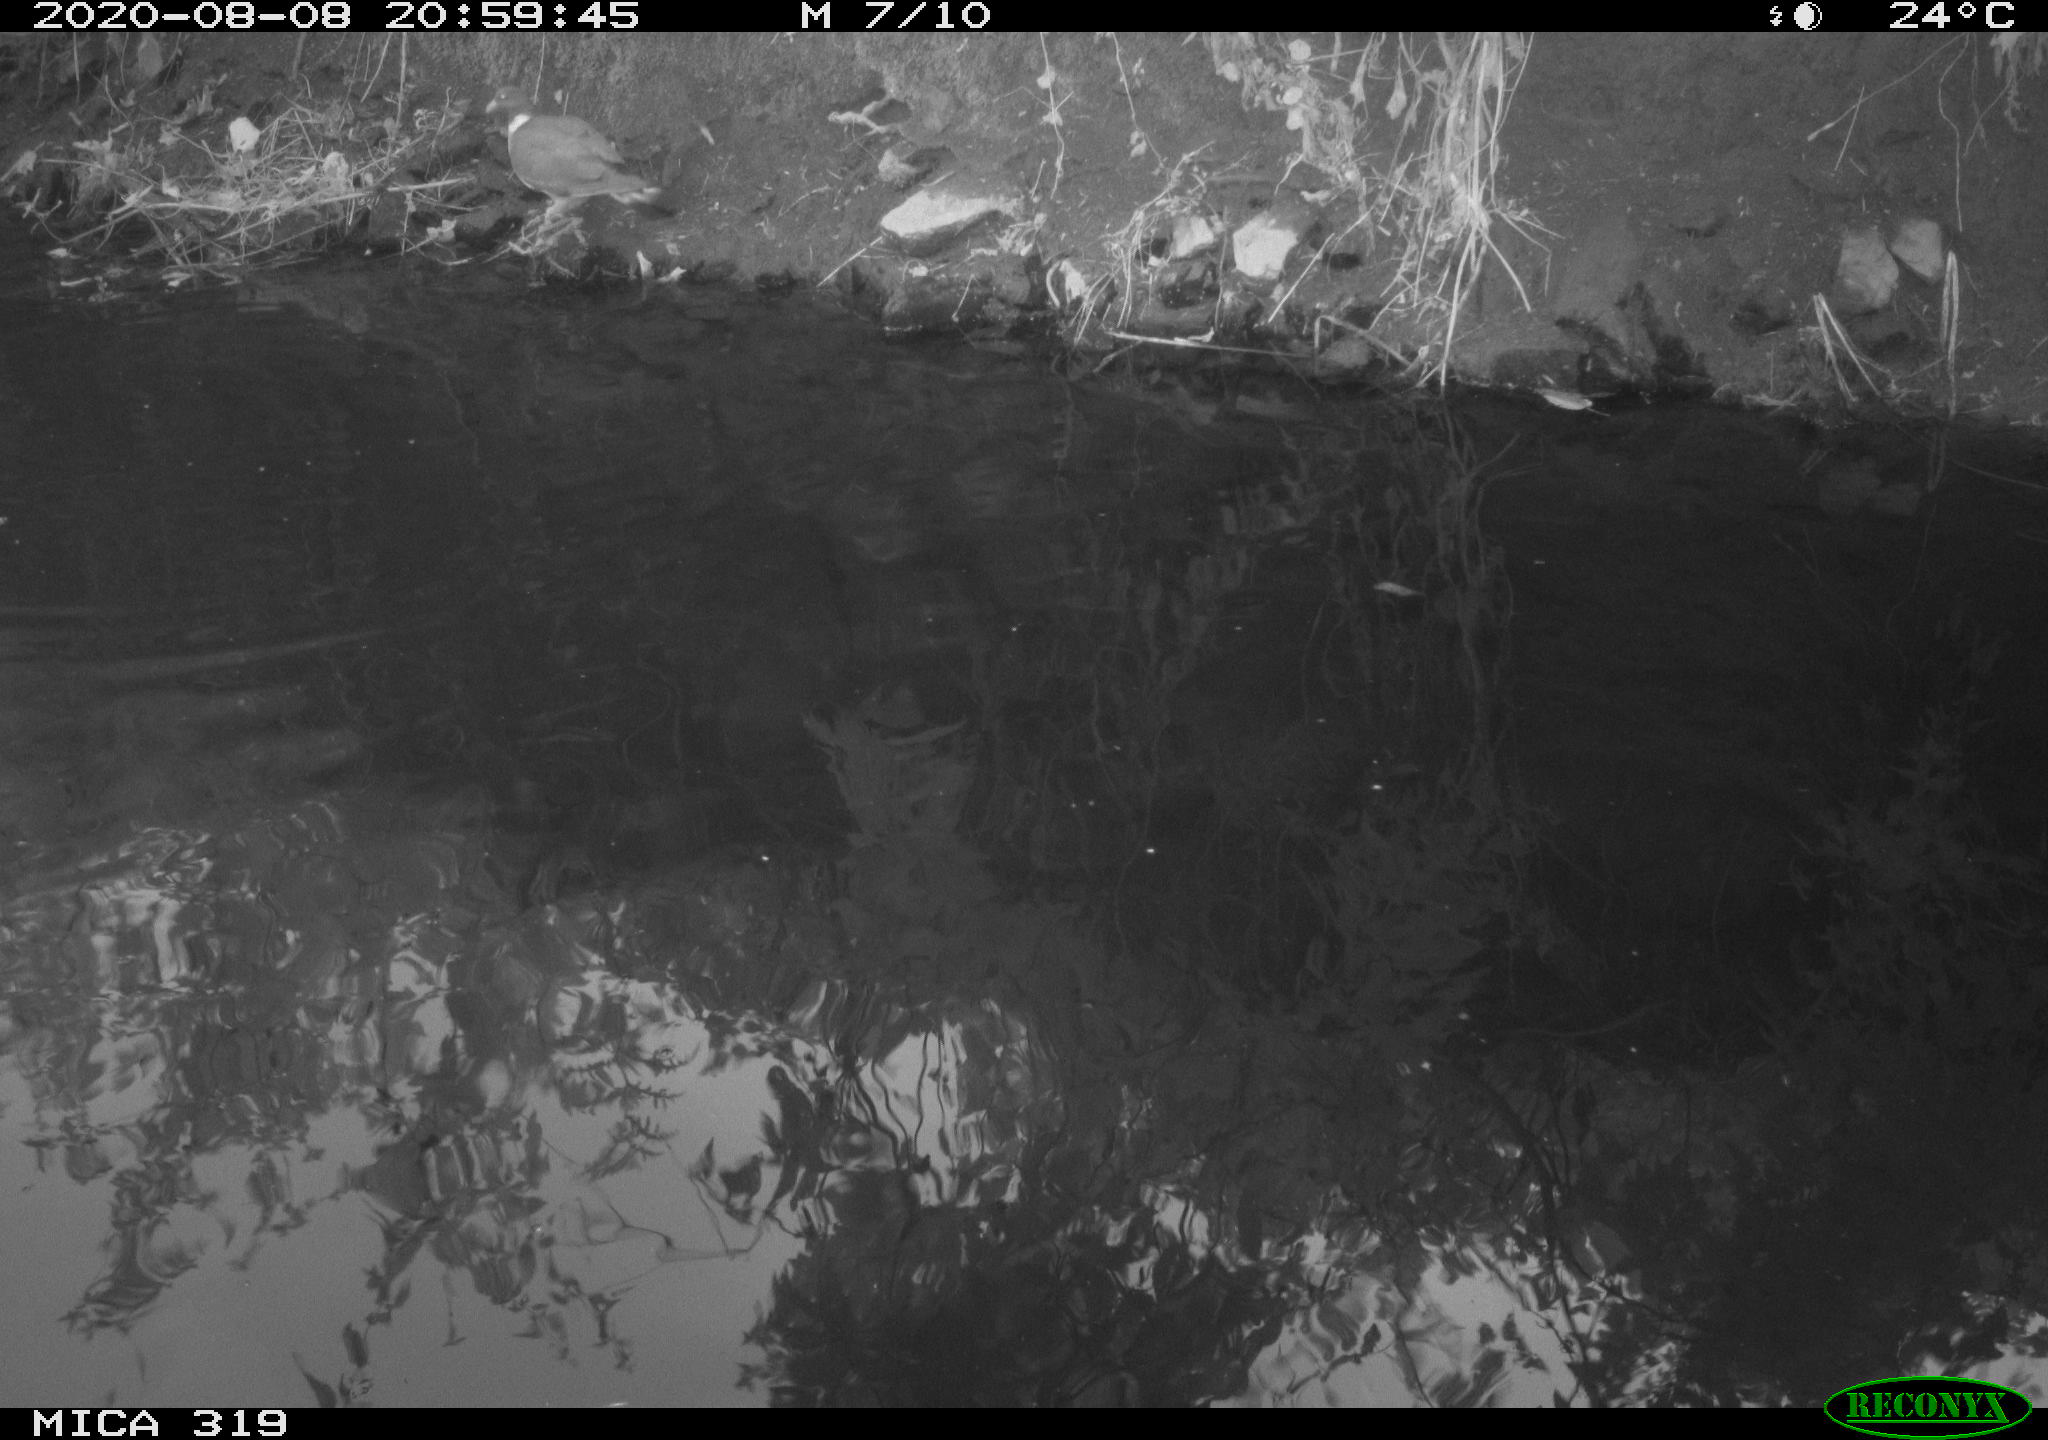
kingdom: Animalia
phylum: Chordata
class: Aves
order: Columbiformes
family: Columbidae
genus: Columba
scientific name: Columba palumbus
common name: Common wood pigeon
